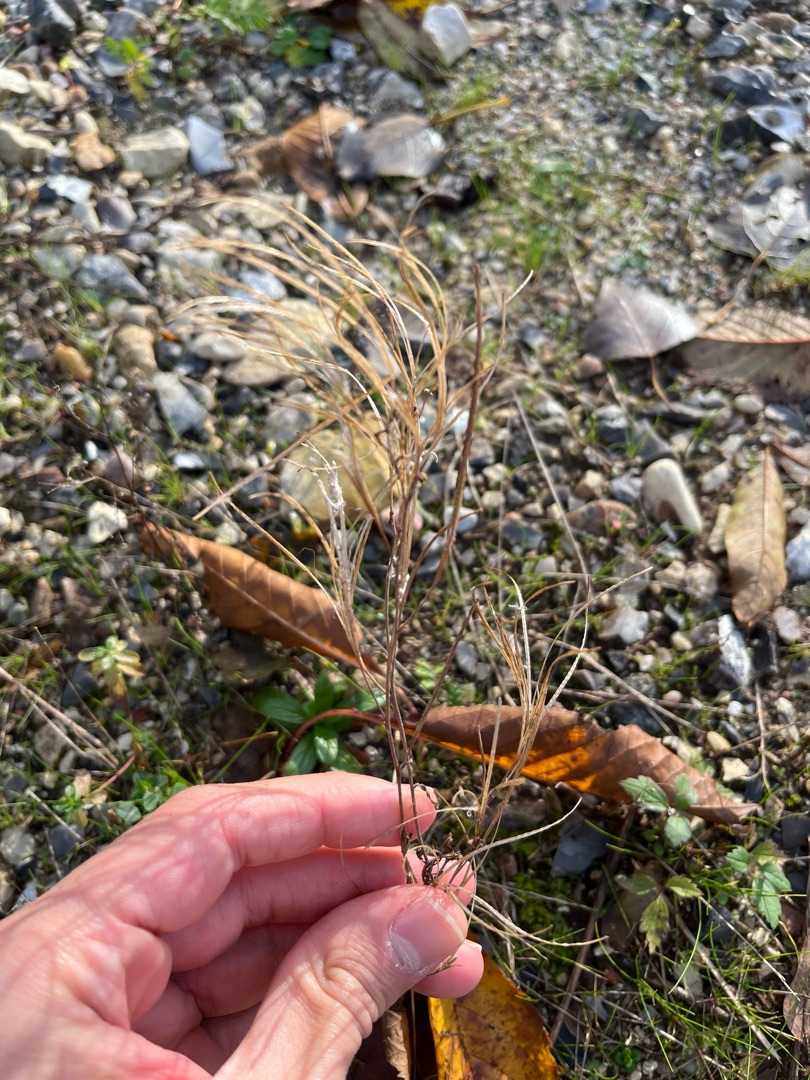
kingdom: Plantae
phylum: Tracheophyta
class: Magnoliopsida
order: Myrtales
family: Onagraceae
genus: Epilobium
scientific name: Epilobium
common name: Dueurtslægten
